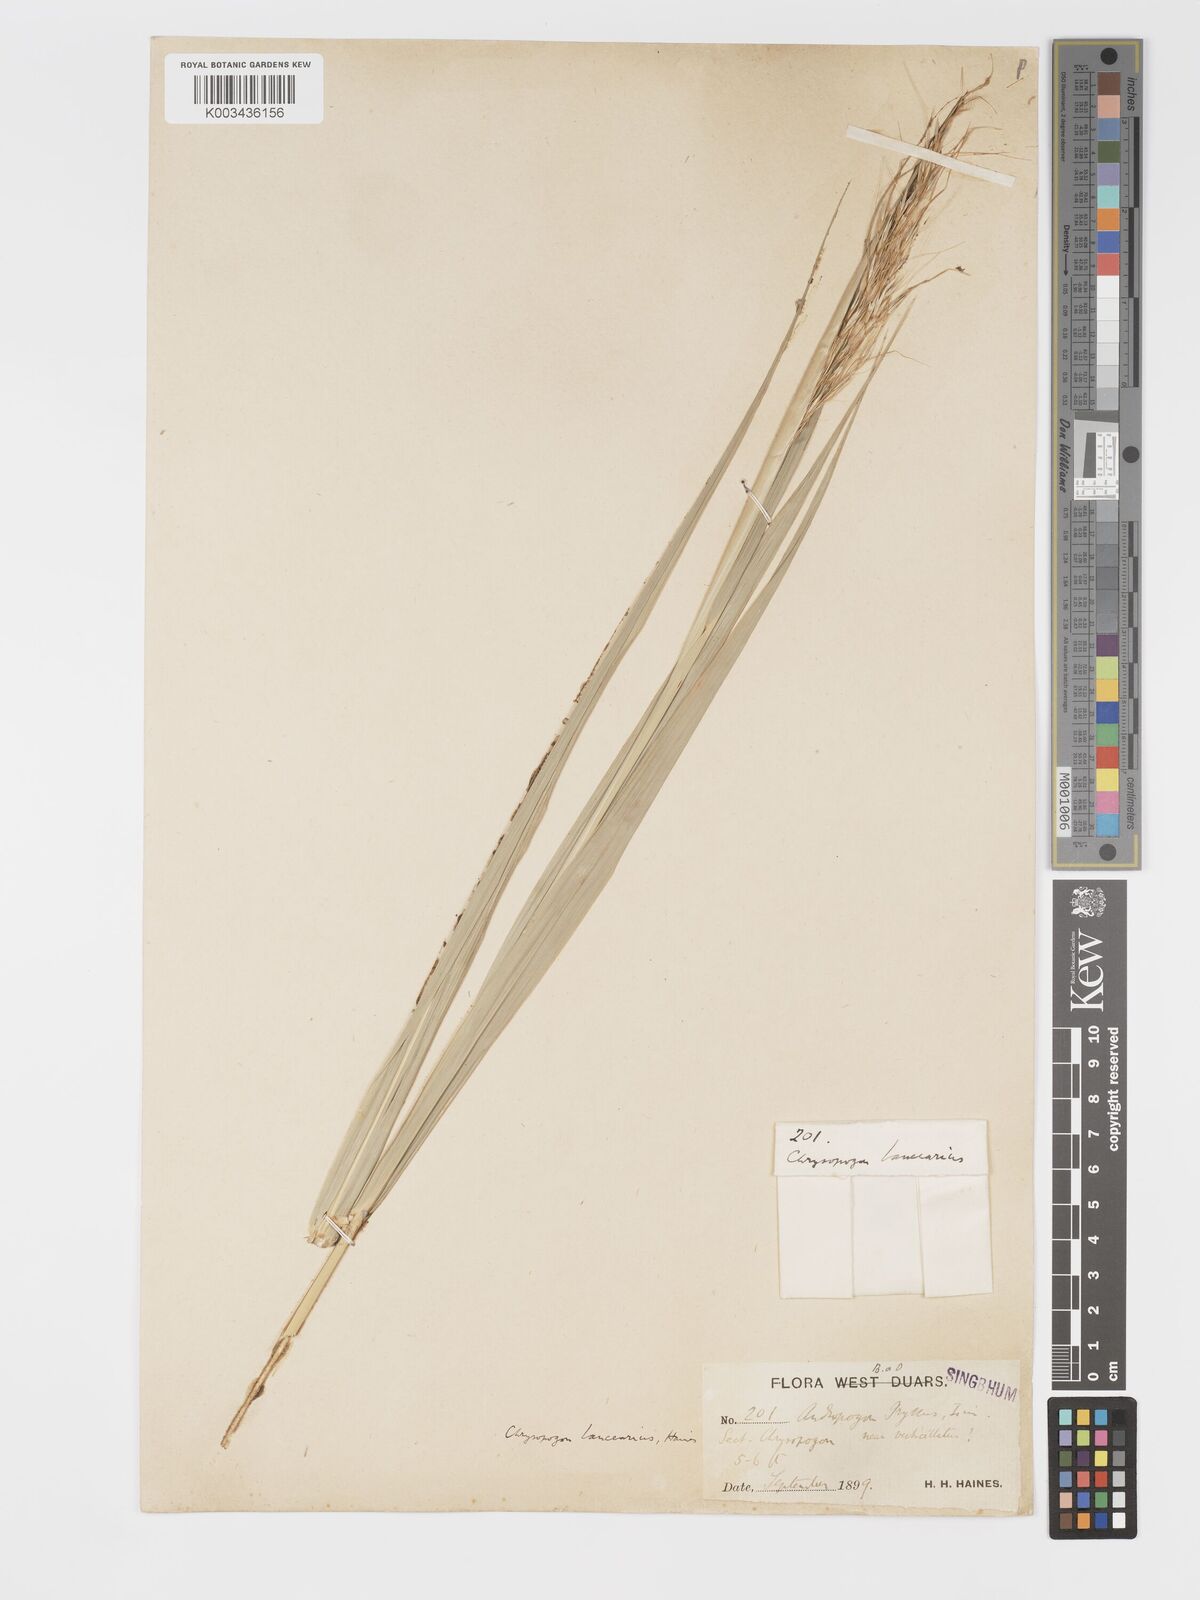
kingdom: Plantae
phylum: Tracheophyta
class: Liliopsida
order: Poales
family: Poaceae
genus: Chrysopogon
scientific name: Chrysopogon lancearius
